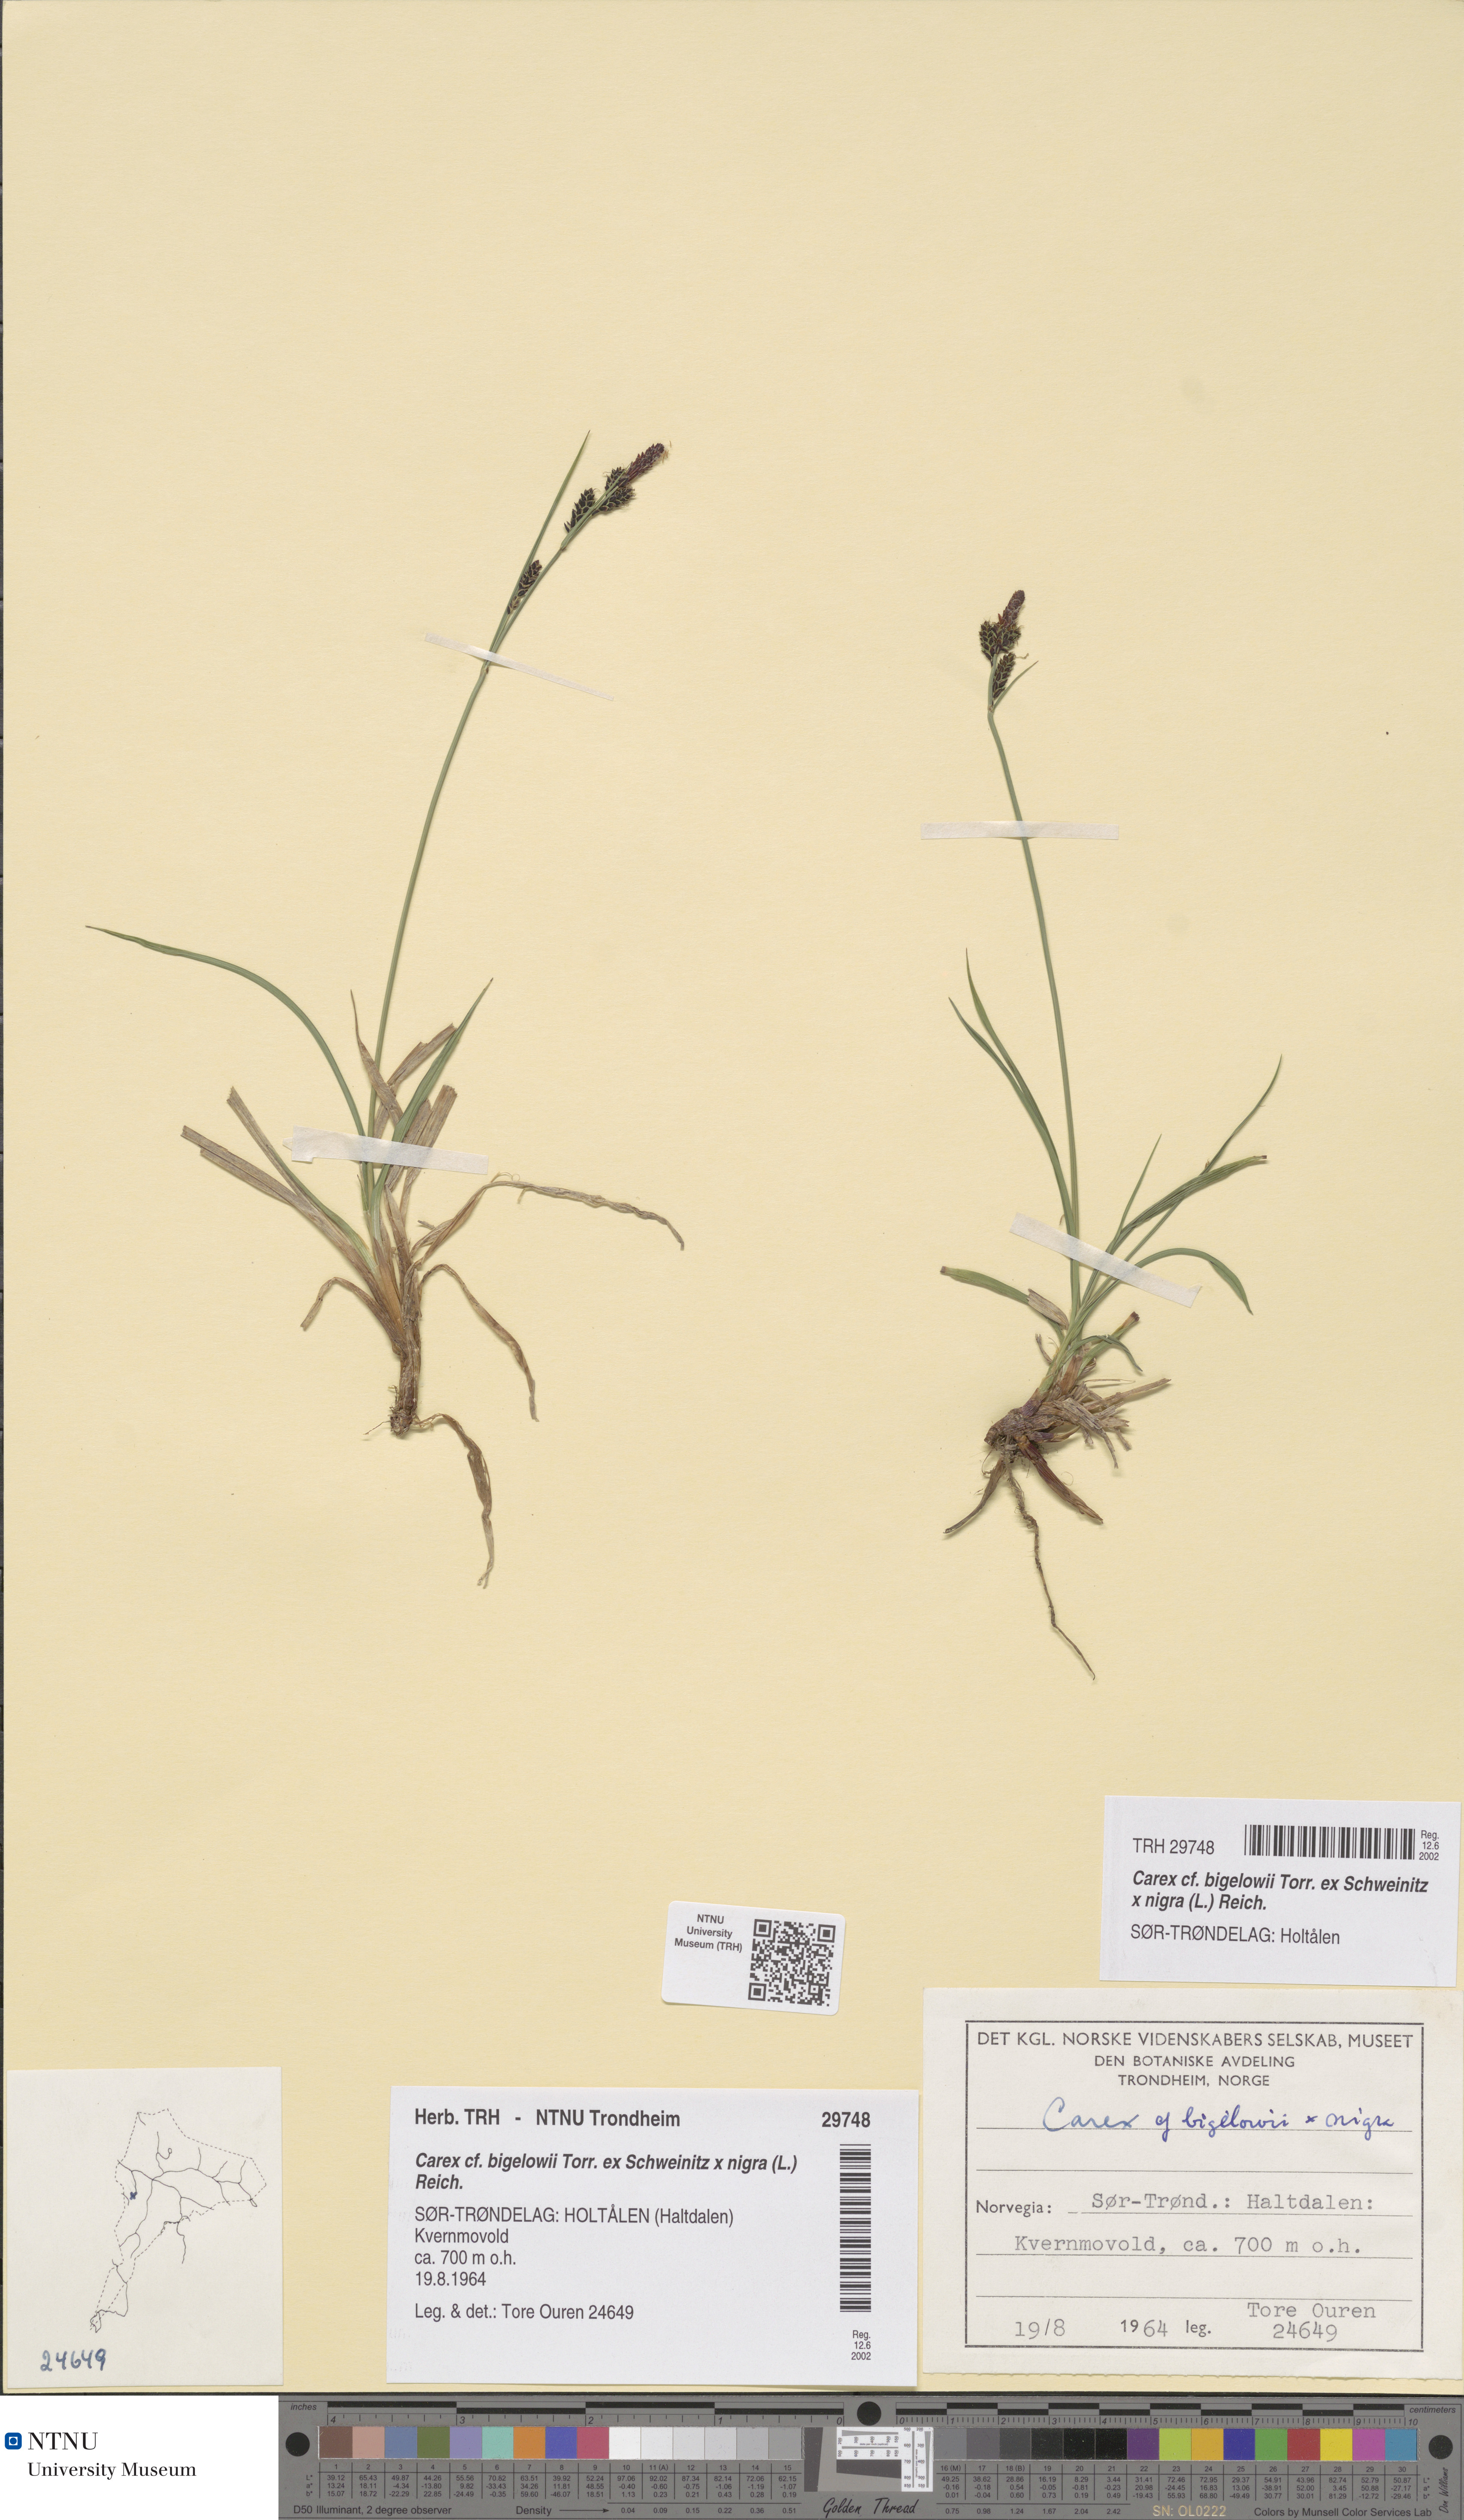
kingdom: Plantae
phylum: Tracheophyta
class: Liliopsida
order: Poales
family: Cyperaceae
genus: Carex
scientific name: Carex dacica
